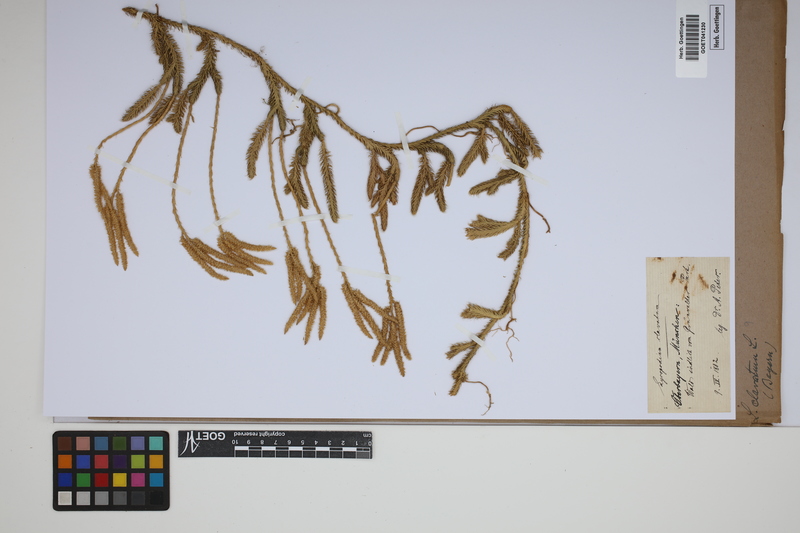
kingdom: Plantae
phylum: Tracheophyta
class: Lycopodiopsida
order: Lycopodiales
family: Lycopodiaceae
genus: Lycopodium
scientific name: Lycopodium clavatum
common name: Stag's-horn clubmoss
